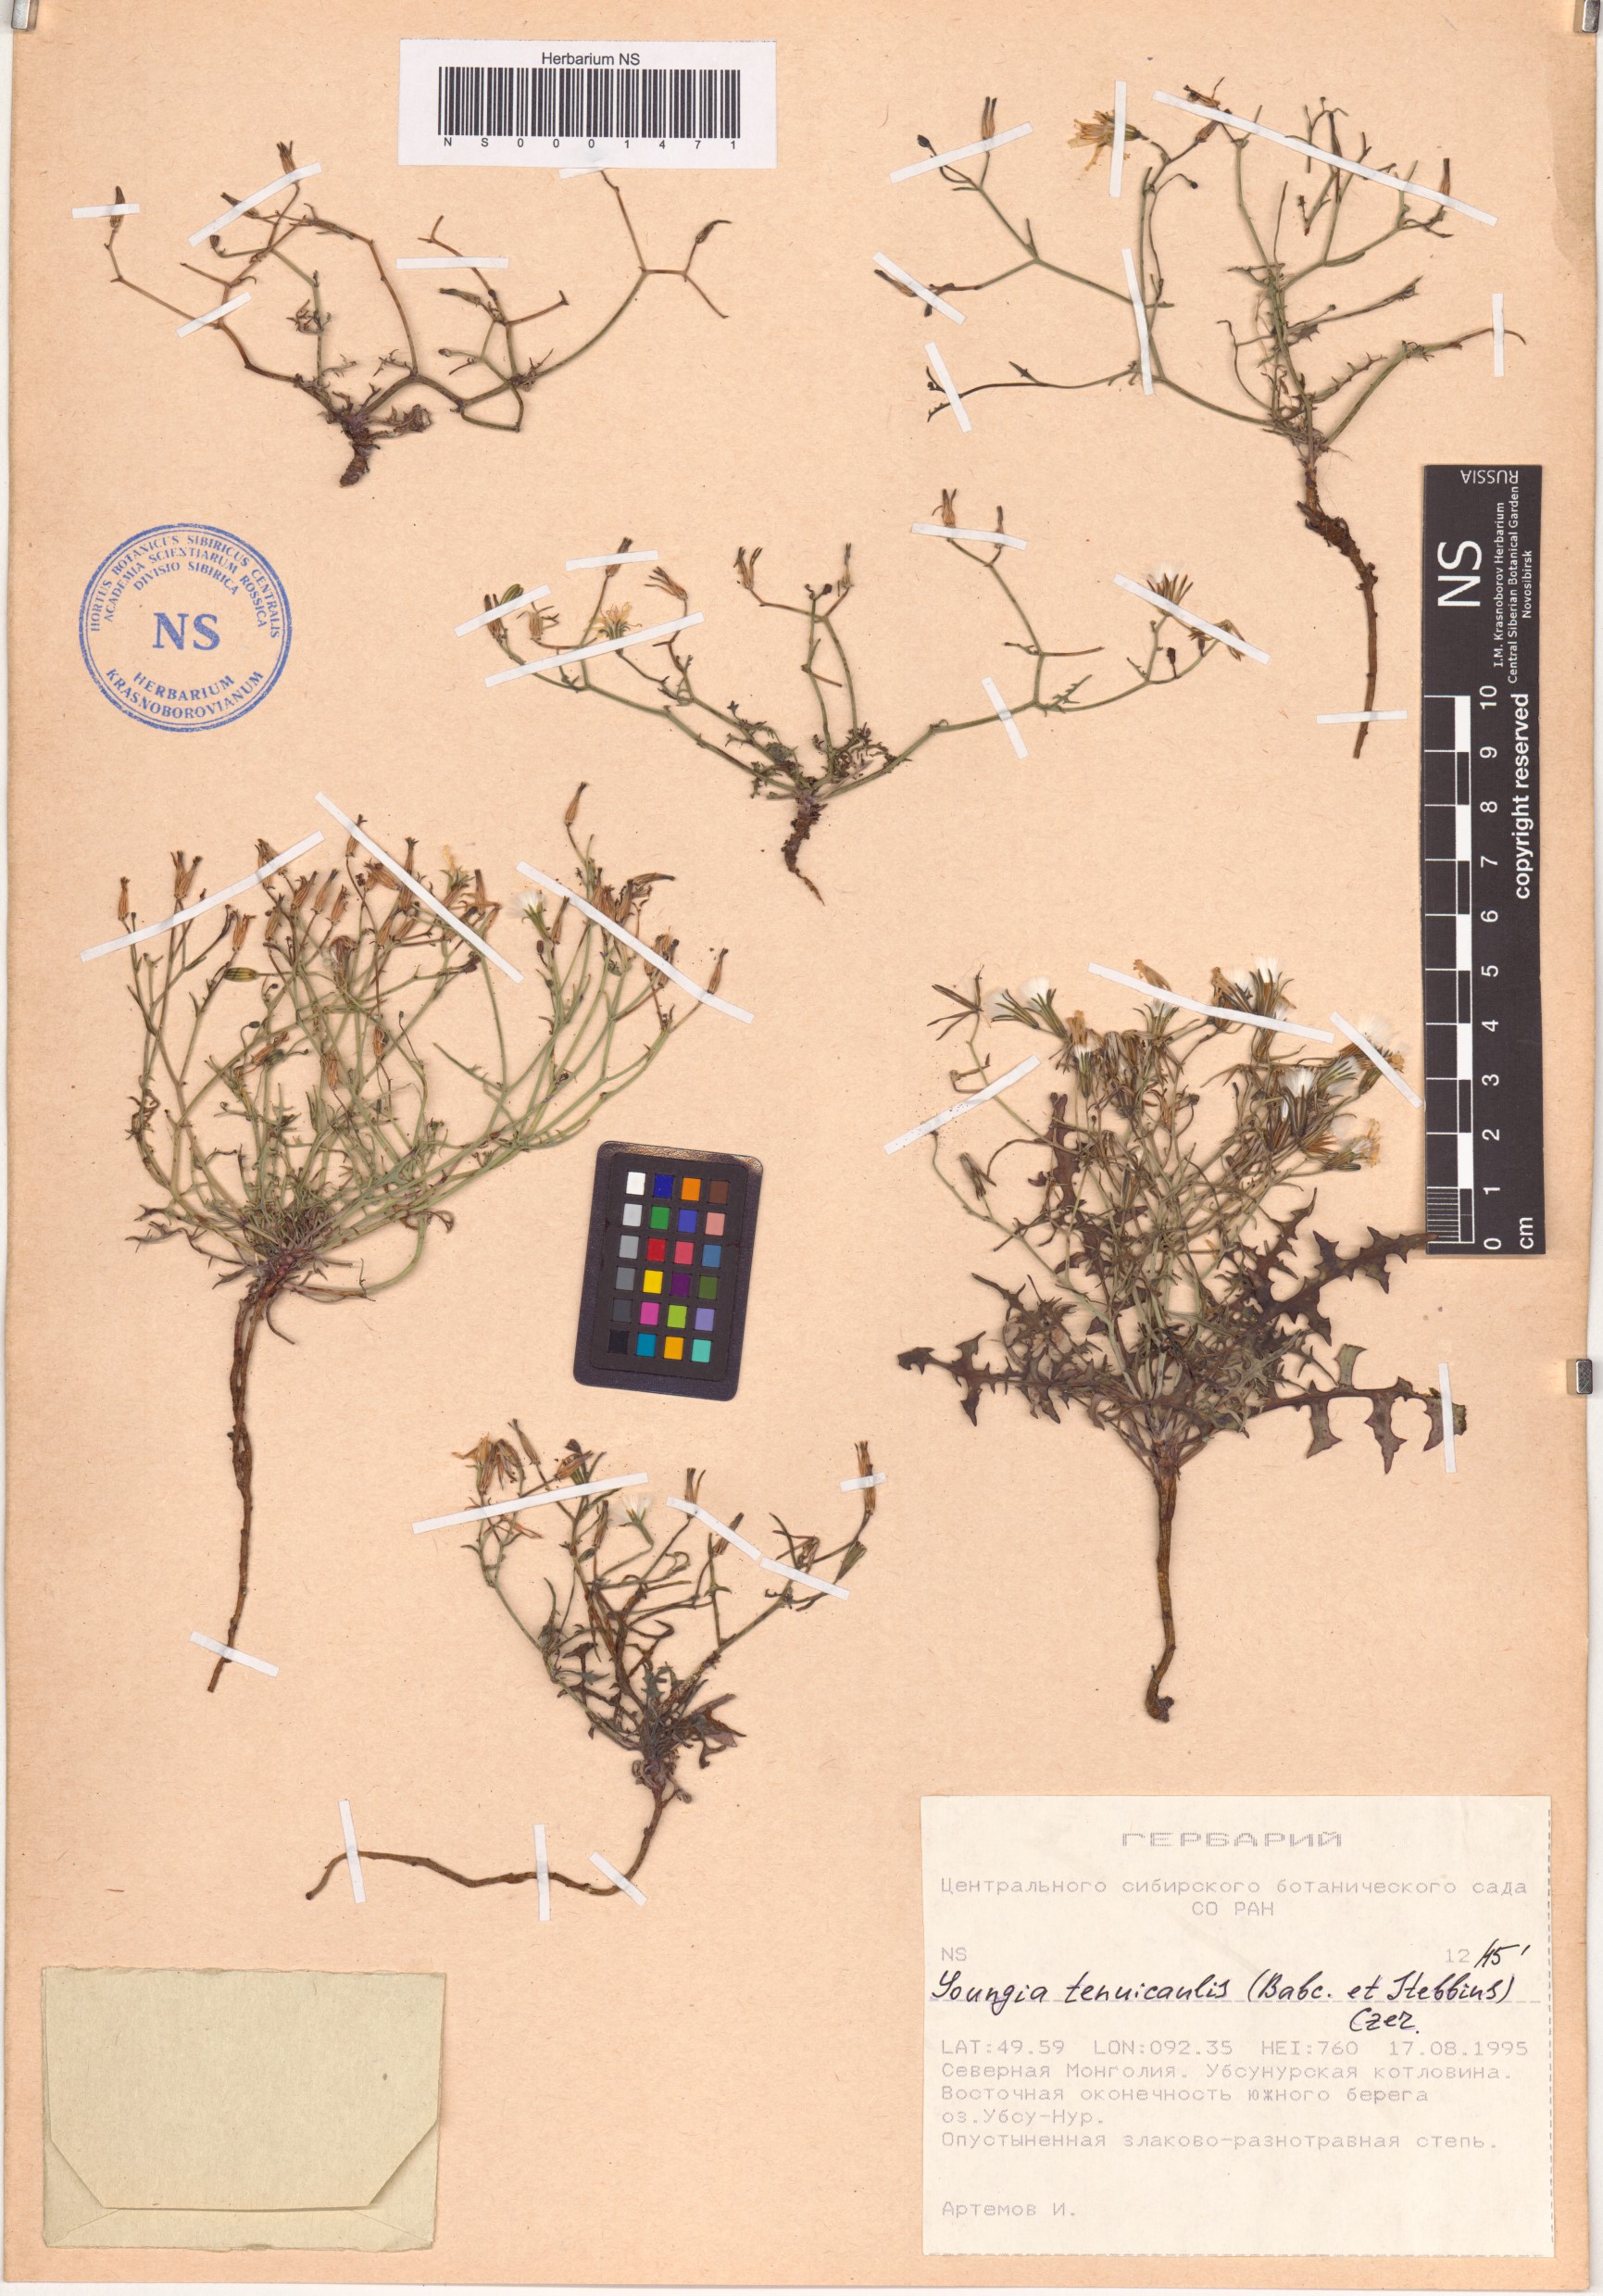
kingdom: Plantae
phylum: Tracheophyta
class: Magnoliopsida
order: Asterales
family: Asteraceae
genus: Crepidiastrum
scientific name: Crepidiastrum akagii
